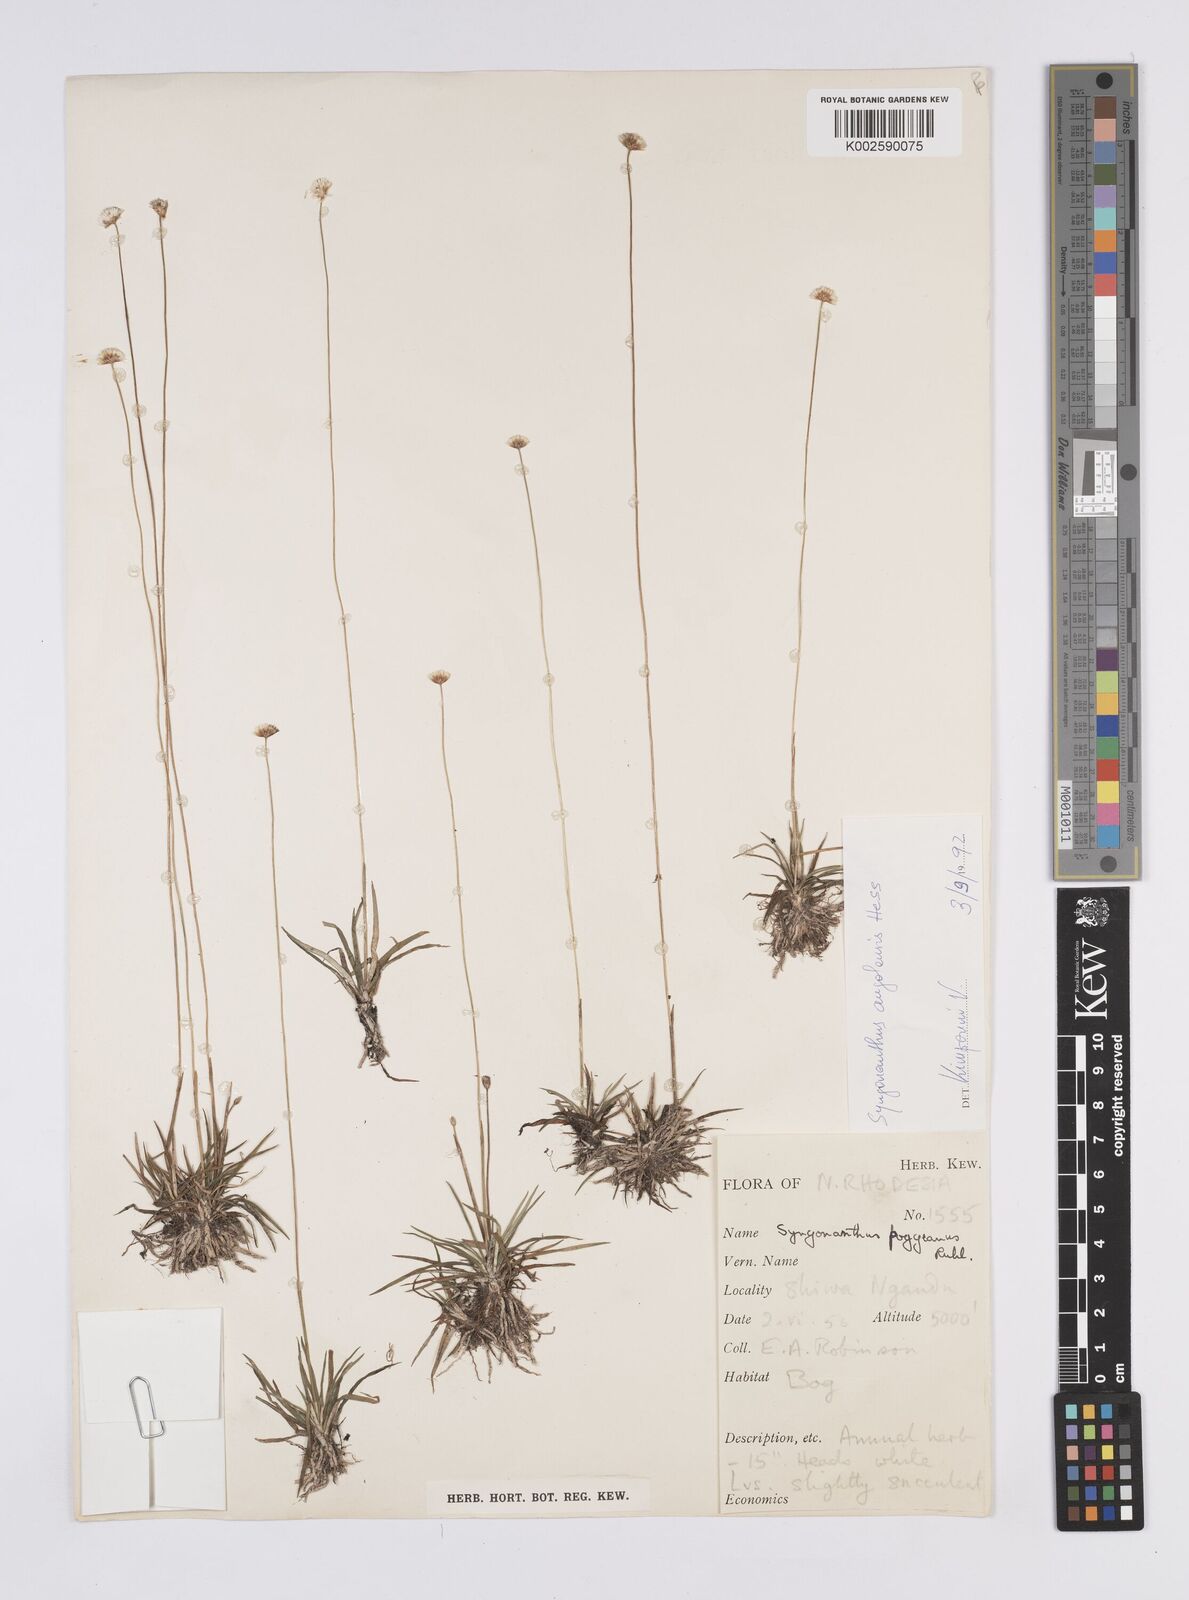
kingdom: Plantae
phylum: Tracheophyta
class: Liliopsida
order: Poales
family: Eriocaulaceae
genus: Syngonanthus
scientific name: Syngonanthus angolensis
